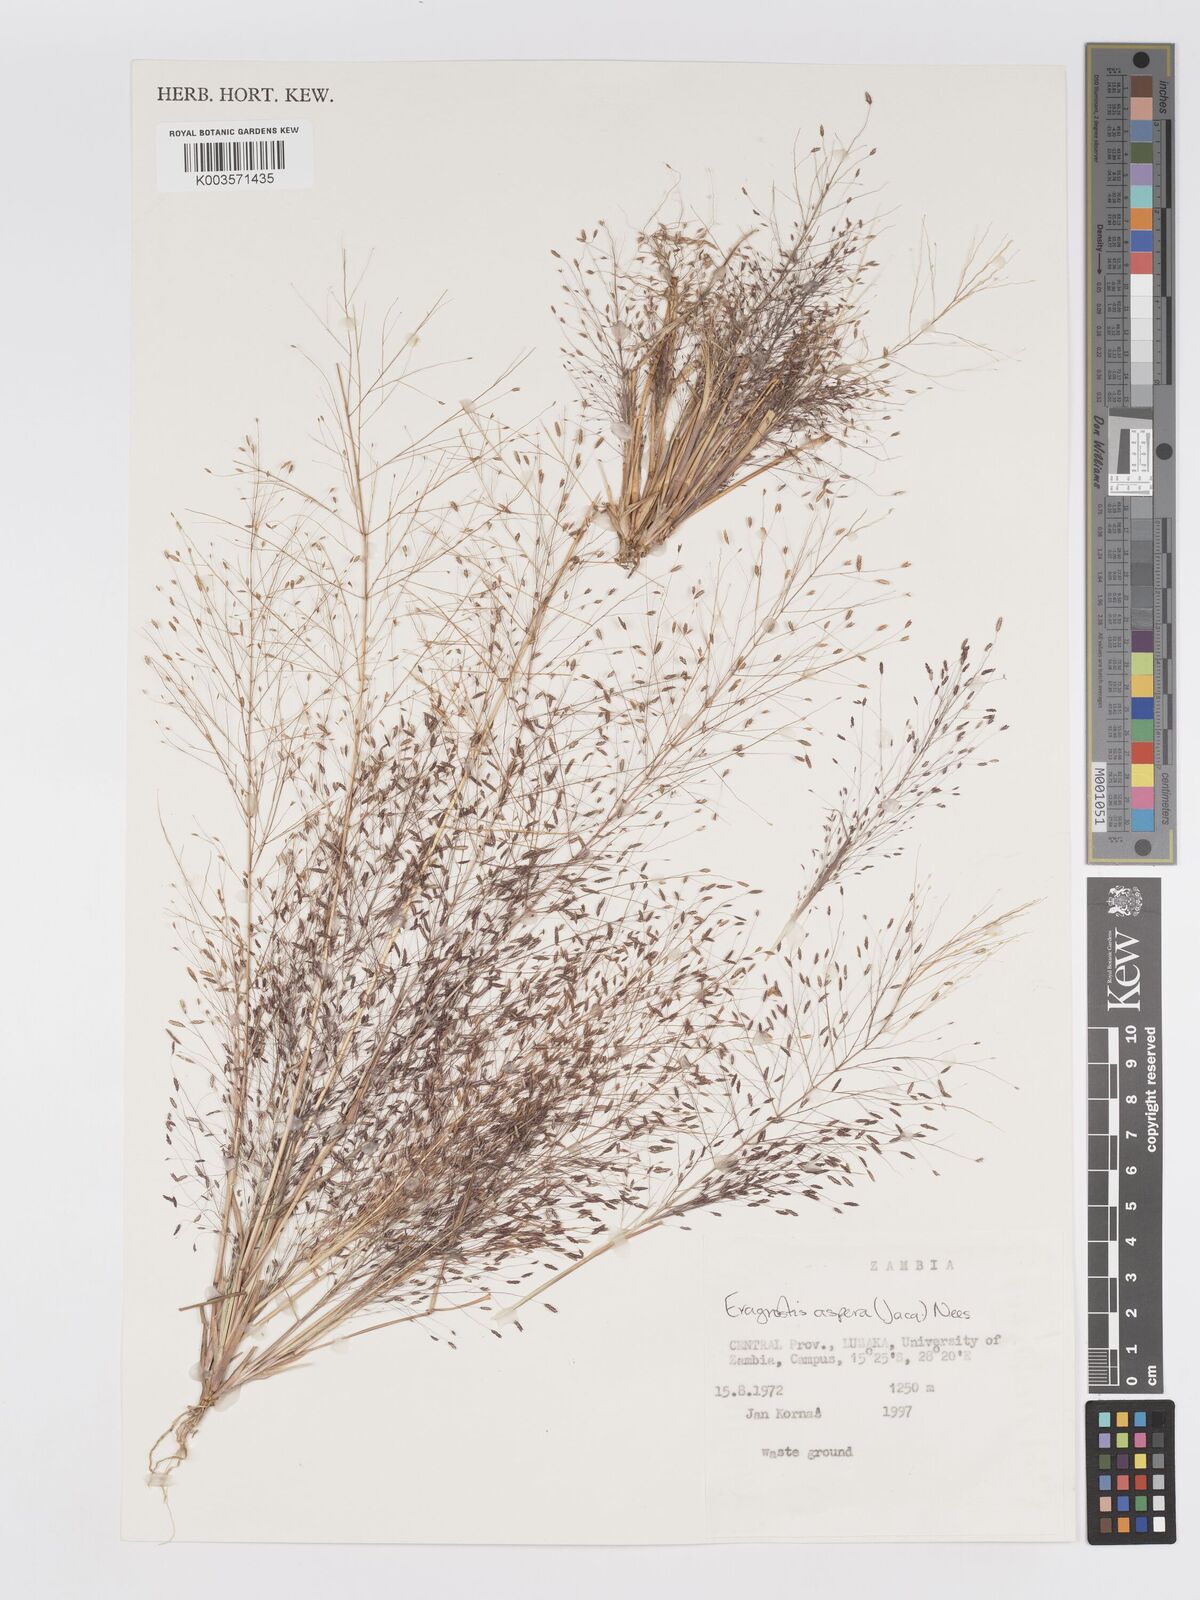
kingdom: Plantae
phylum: Tracheophyta
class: Liliopsida
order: Poales
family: Poaceae
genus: Eragrostis
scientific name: Eragrostis aspera
